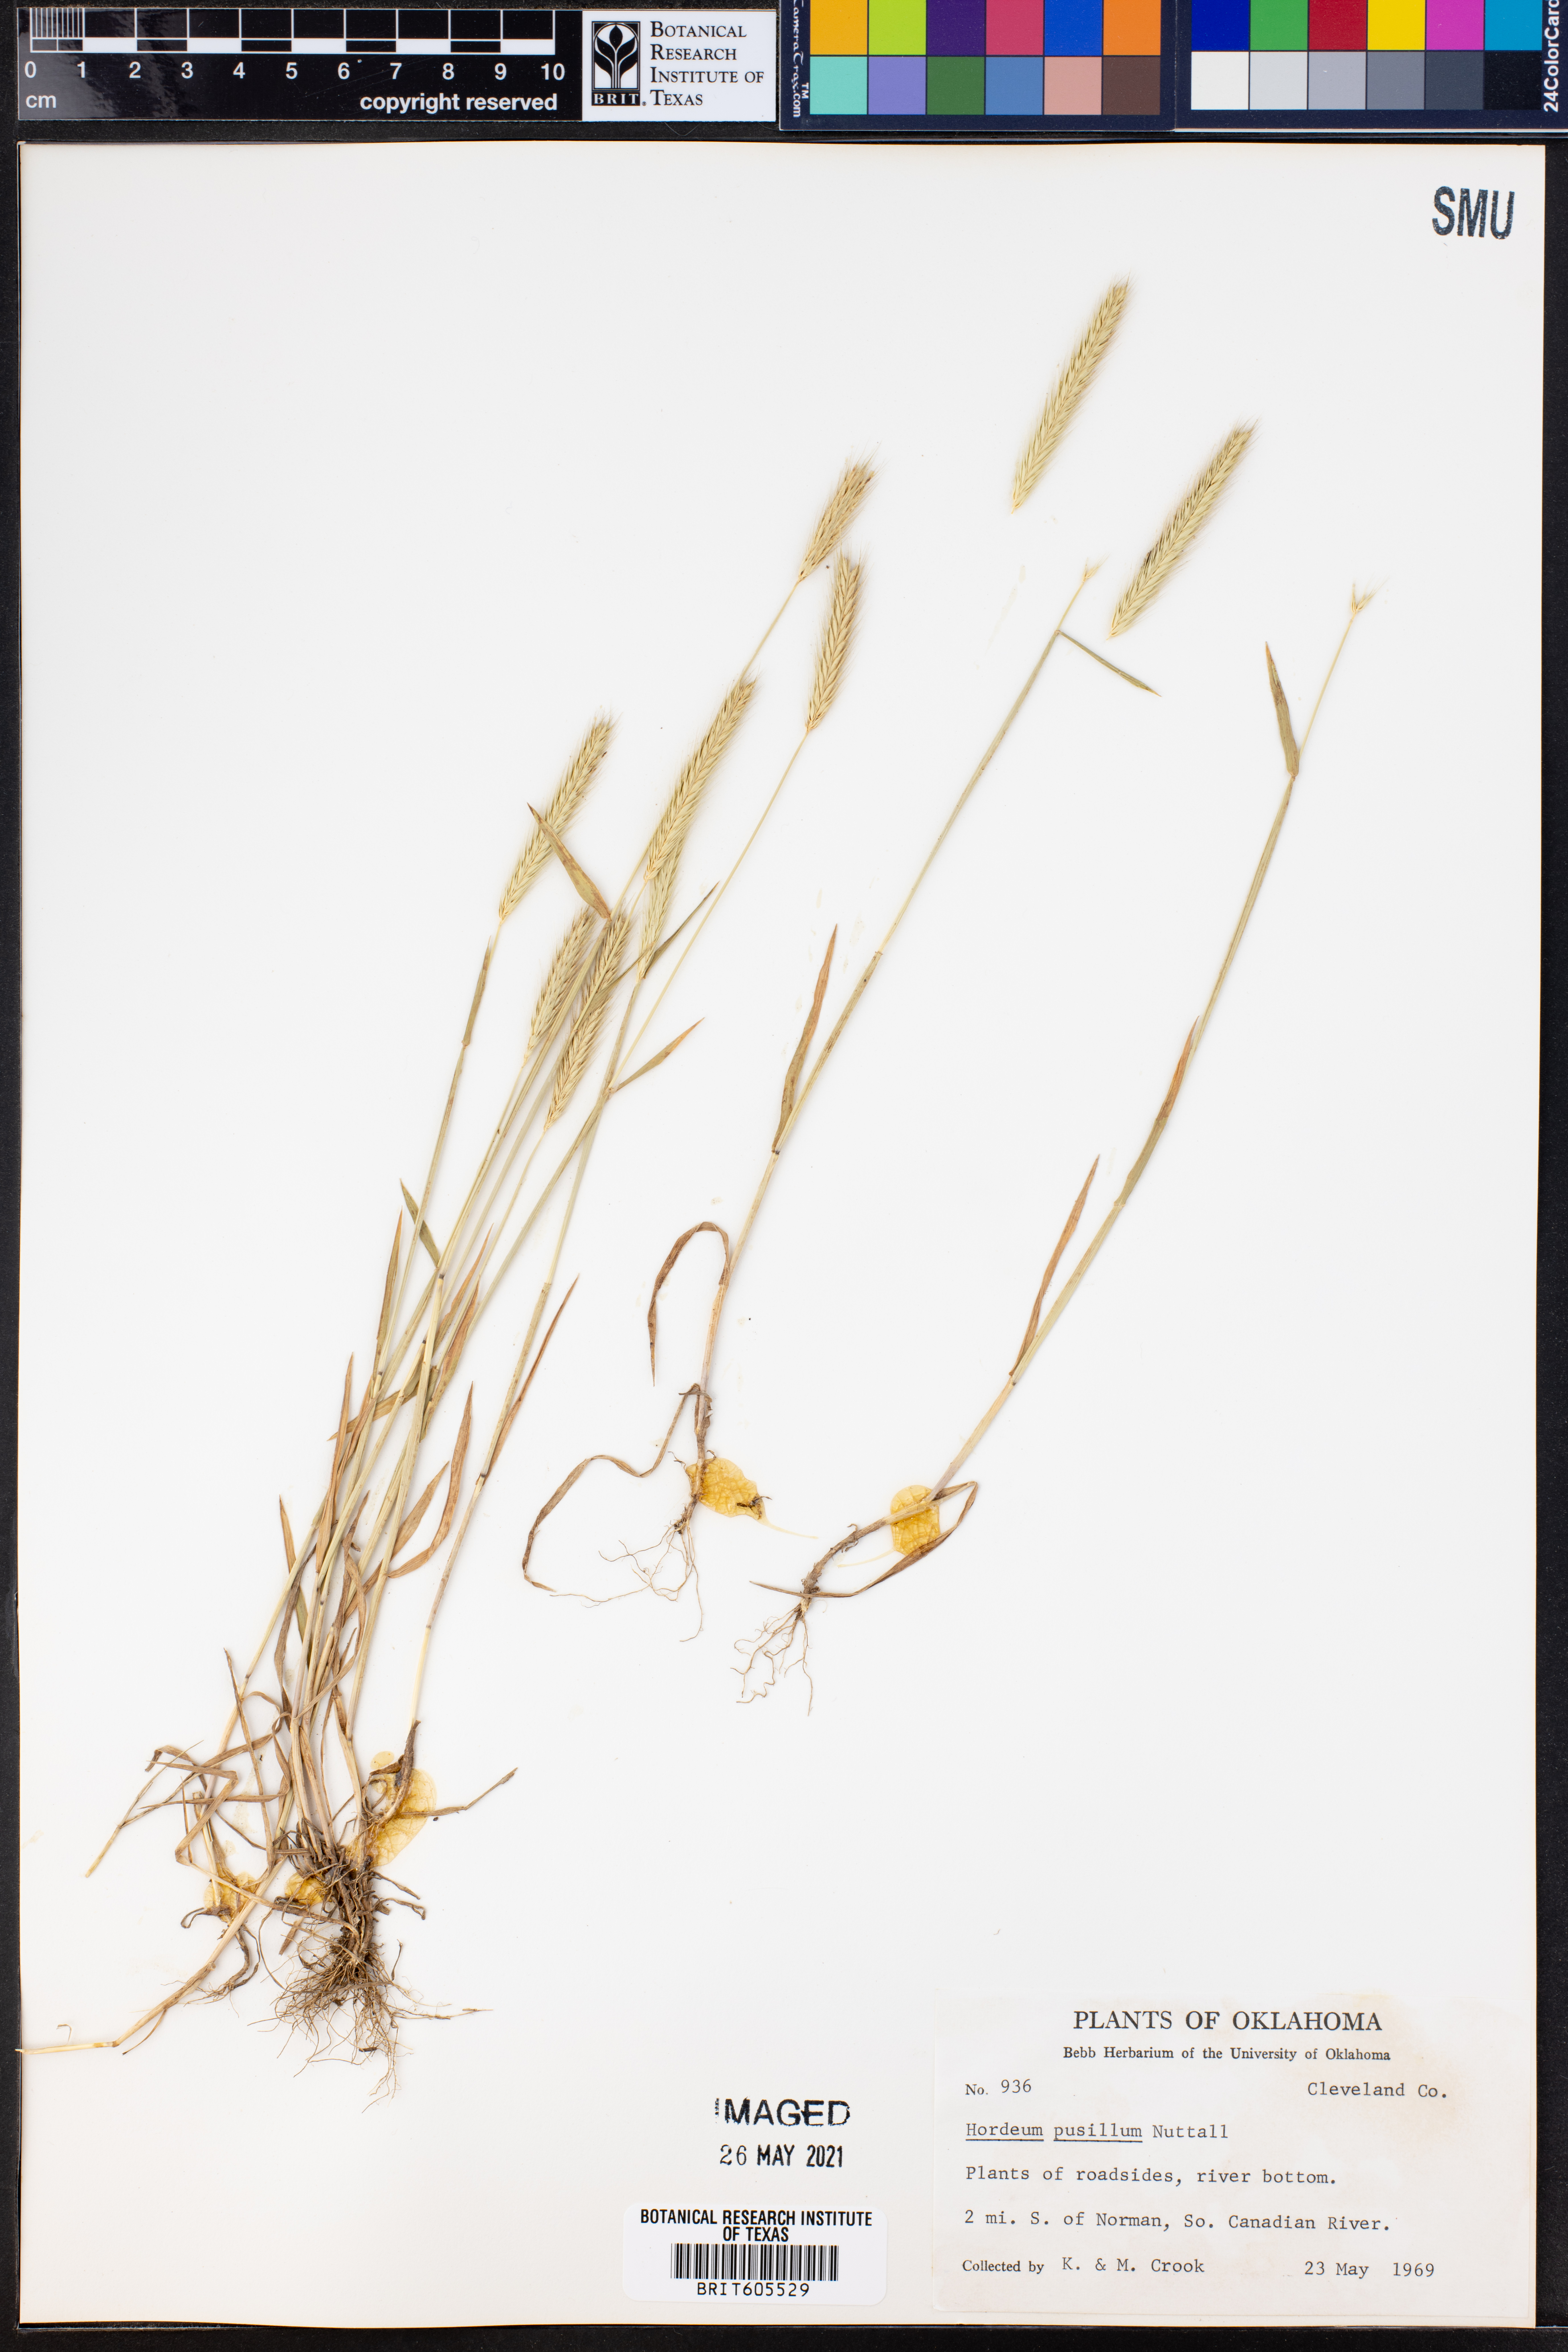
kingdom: Plantae
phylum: Tracheophyta
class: Liliopsida
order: Poales
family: Poaceae
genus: Hordeum
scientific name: Hordeum pusillum
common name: Little barley
